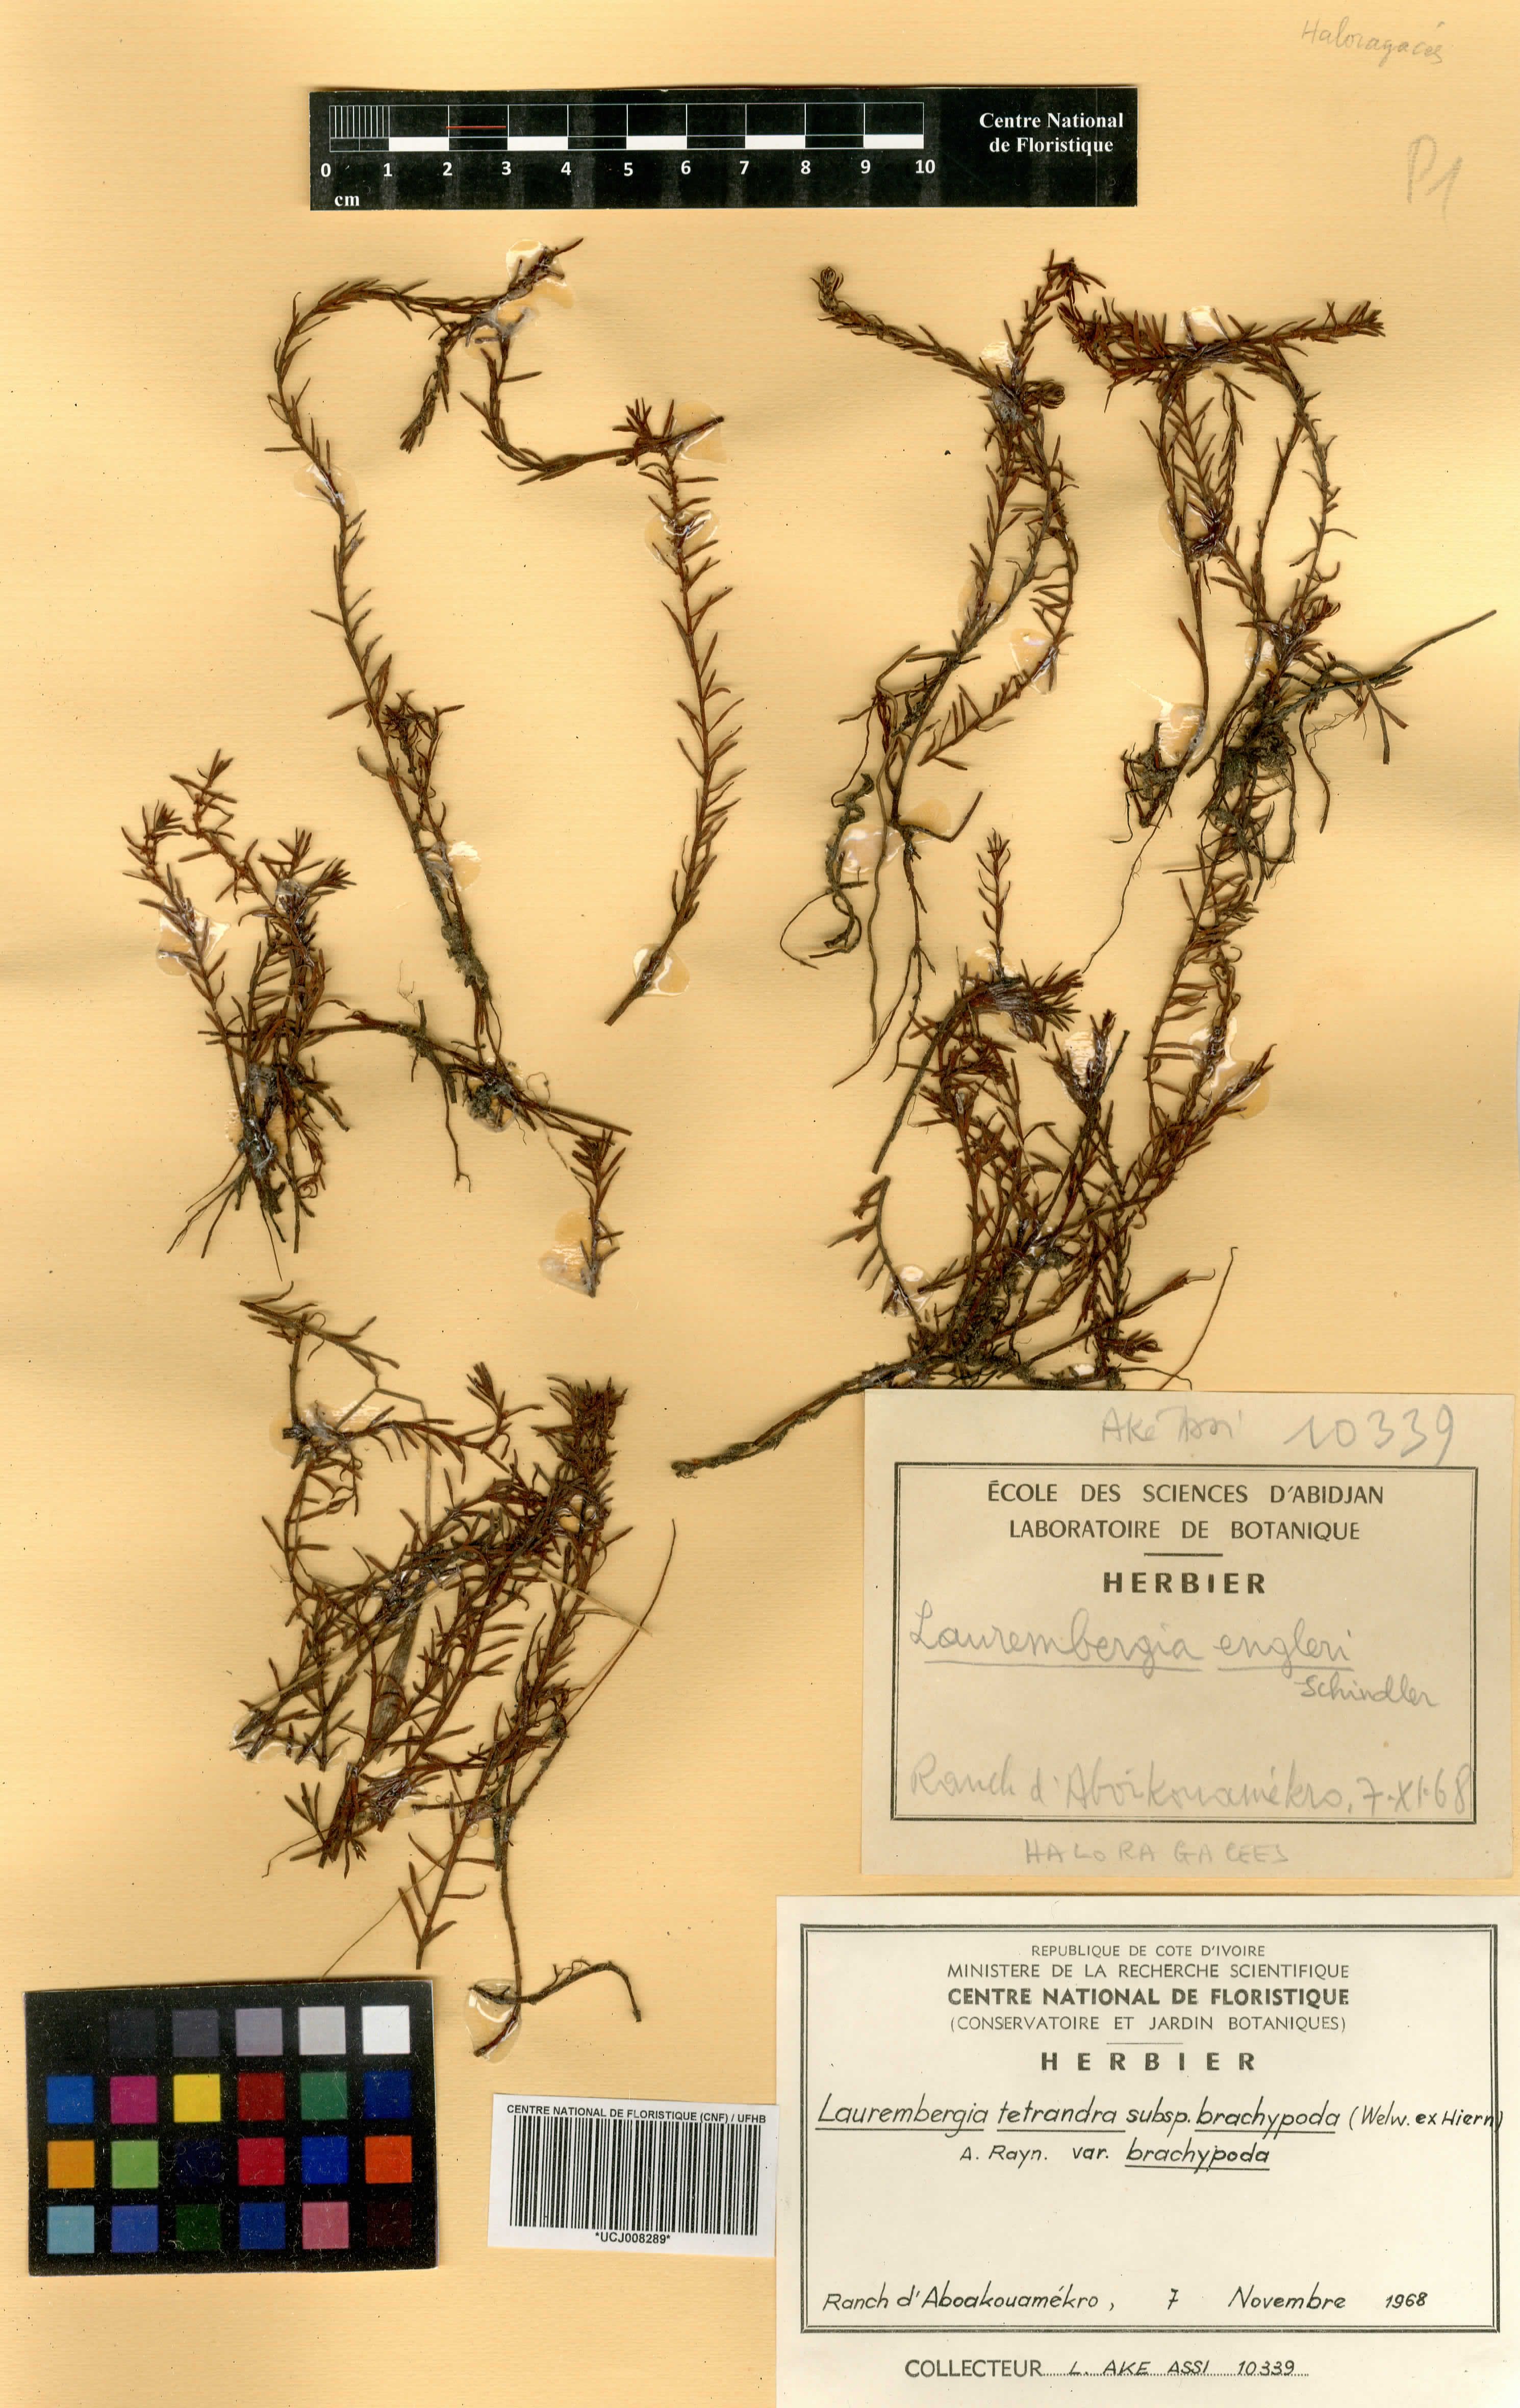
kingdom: Plantae
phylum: Tracheophyta
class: Magnoliopsida
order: Saxifragales
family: Haloragaceae
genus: Laurembergia
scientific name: Laurembergia repens
